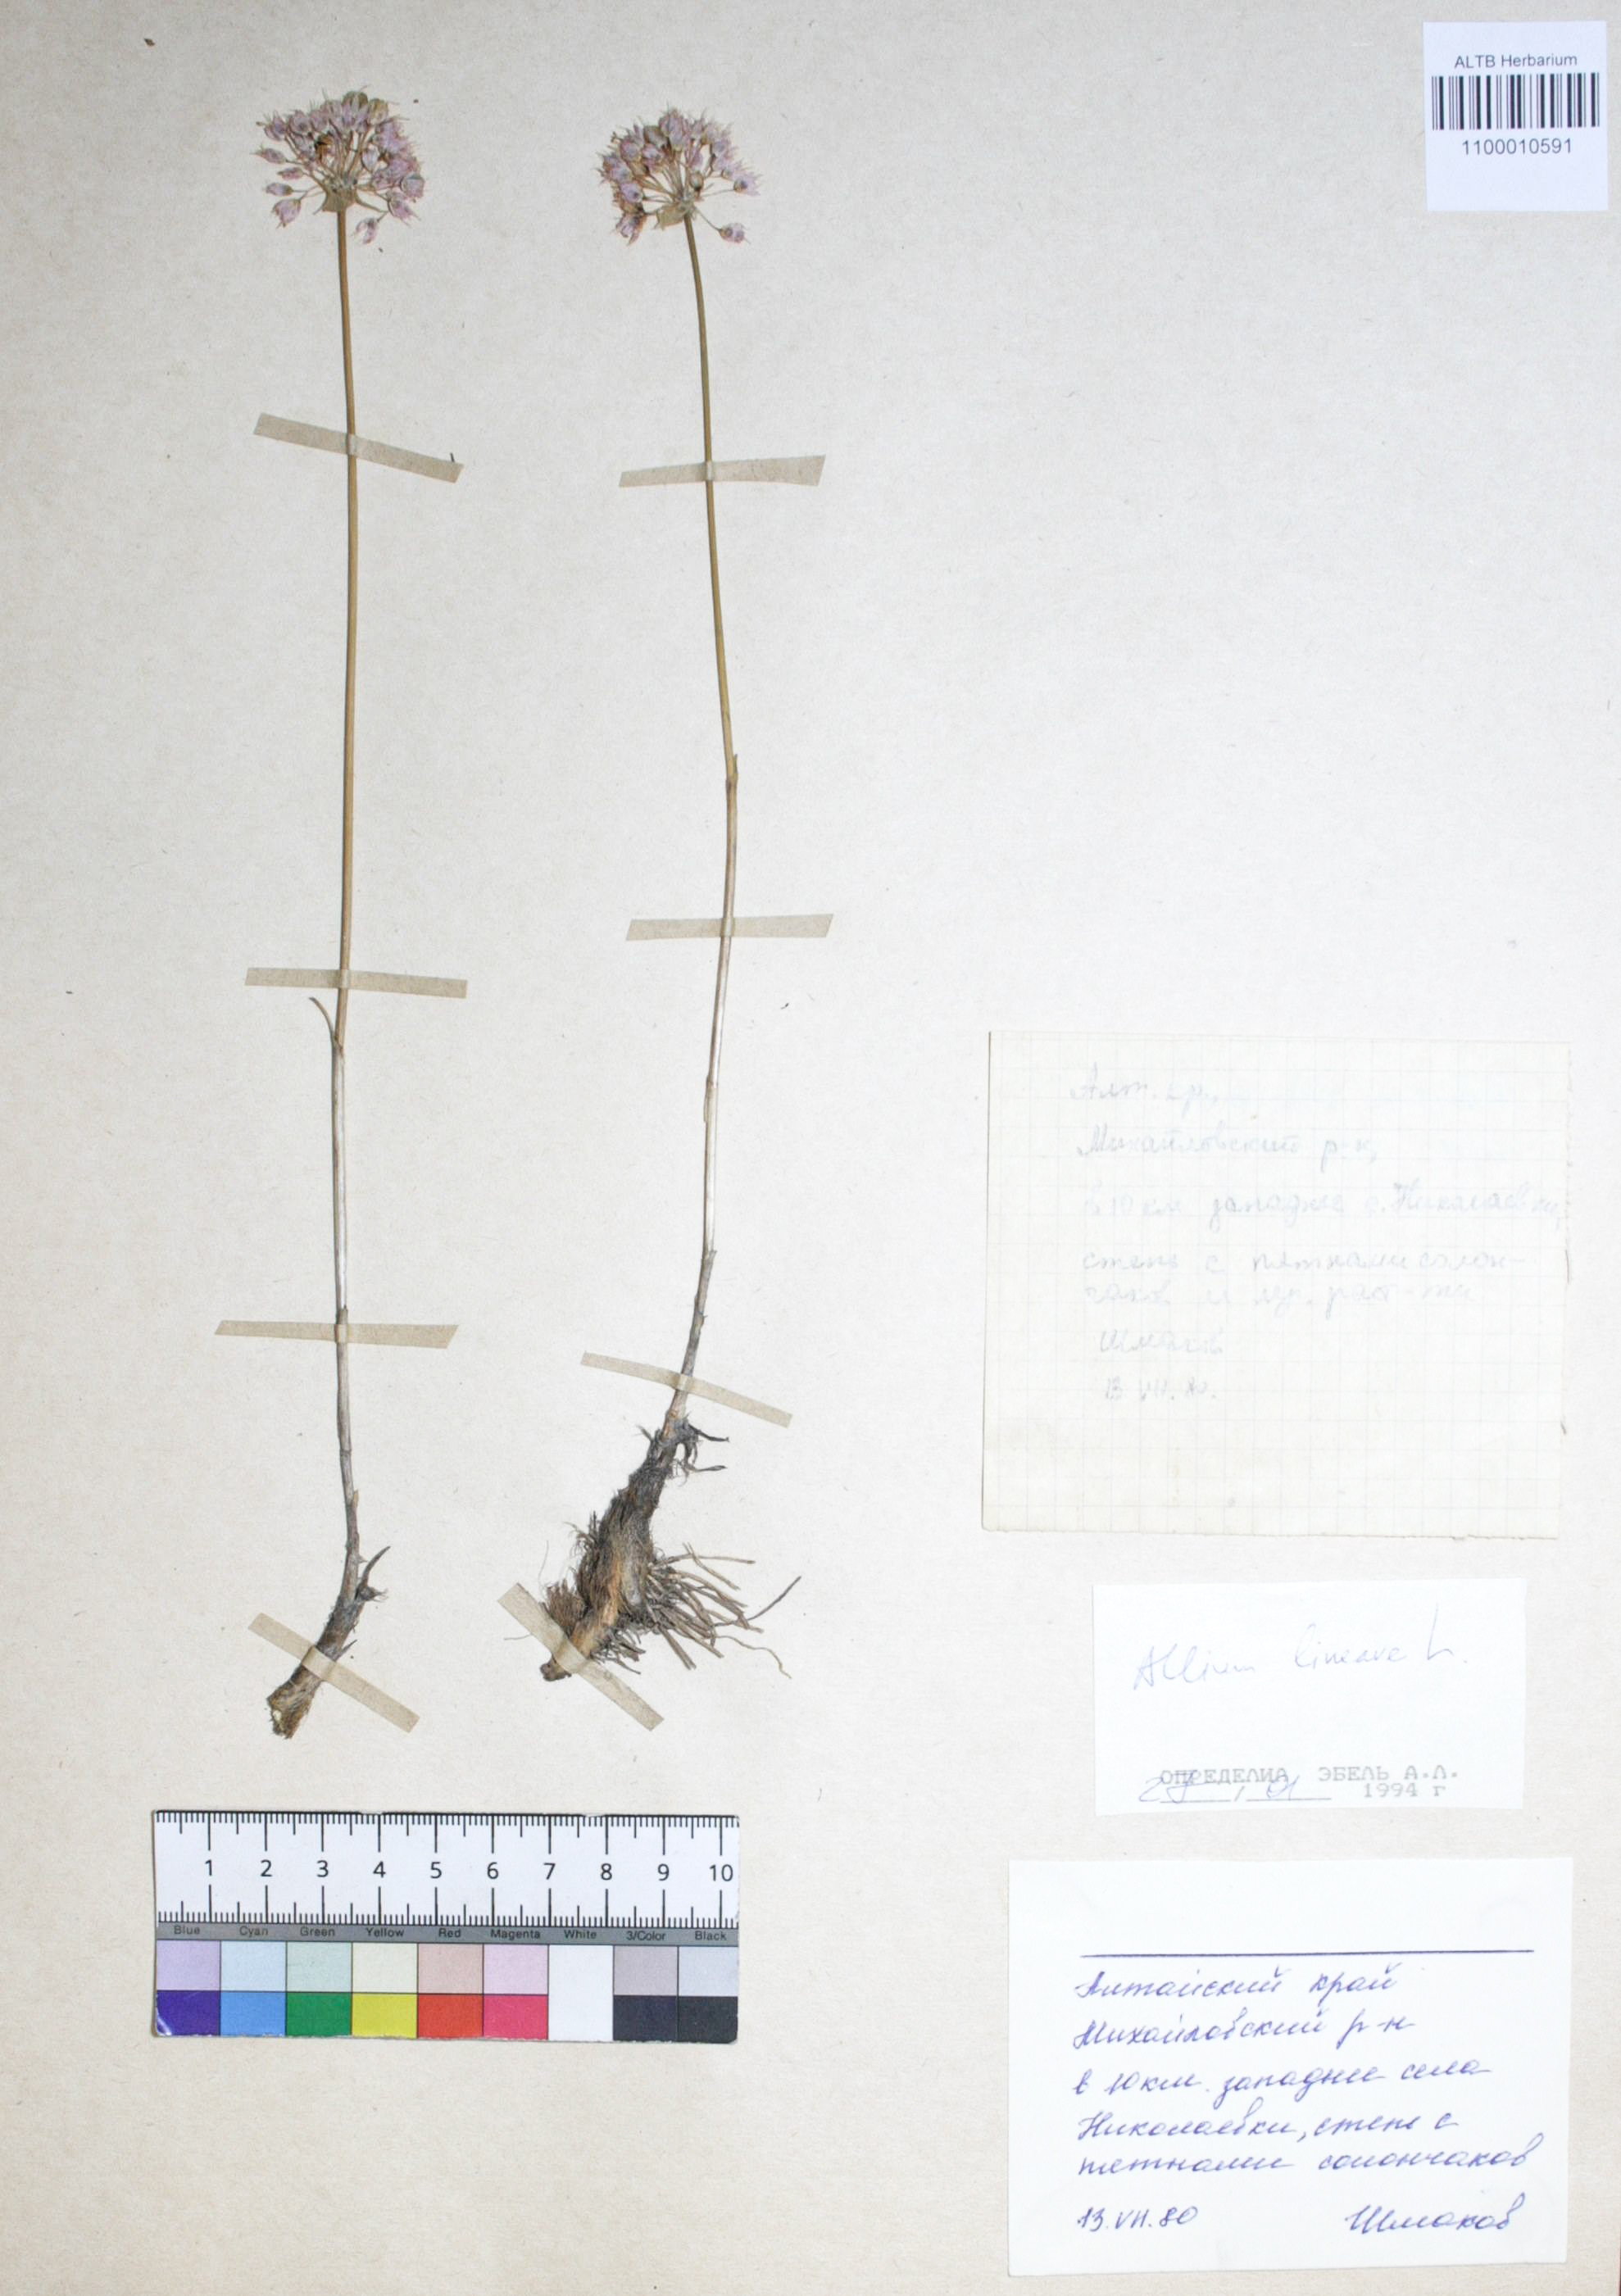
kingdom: Plantae
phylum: Tracheophyta
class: Liliopsida
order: Asparagales
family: Amaryllidaceae
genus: Allium
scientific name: Allium lineare
